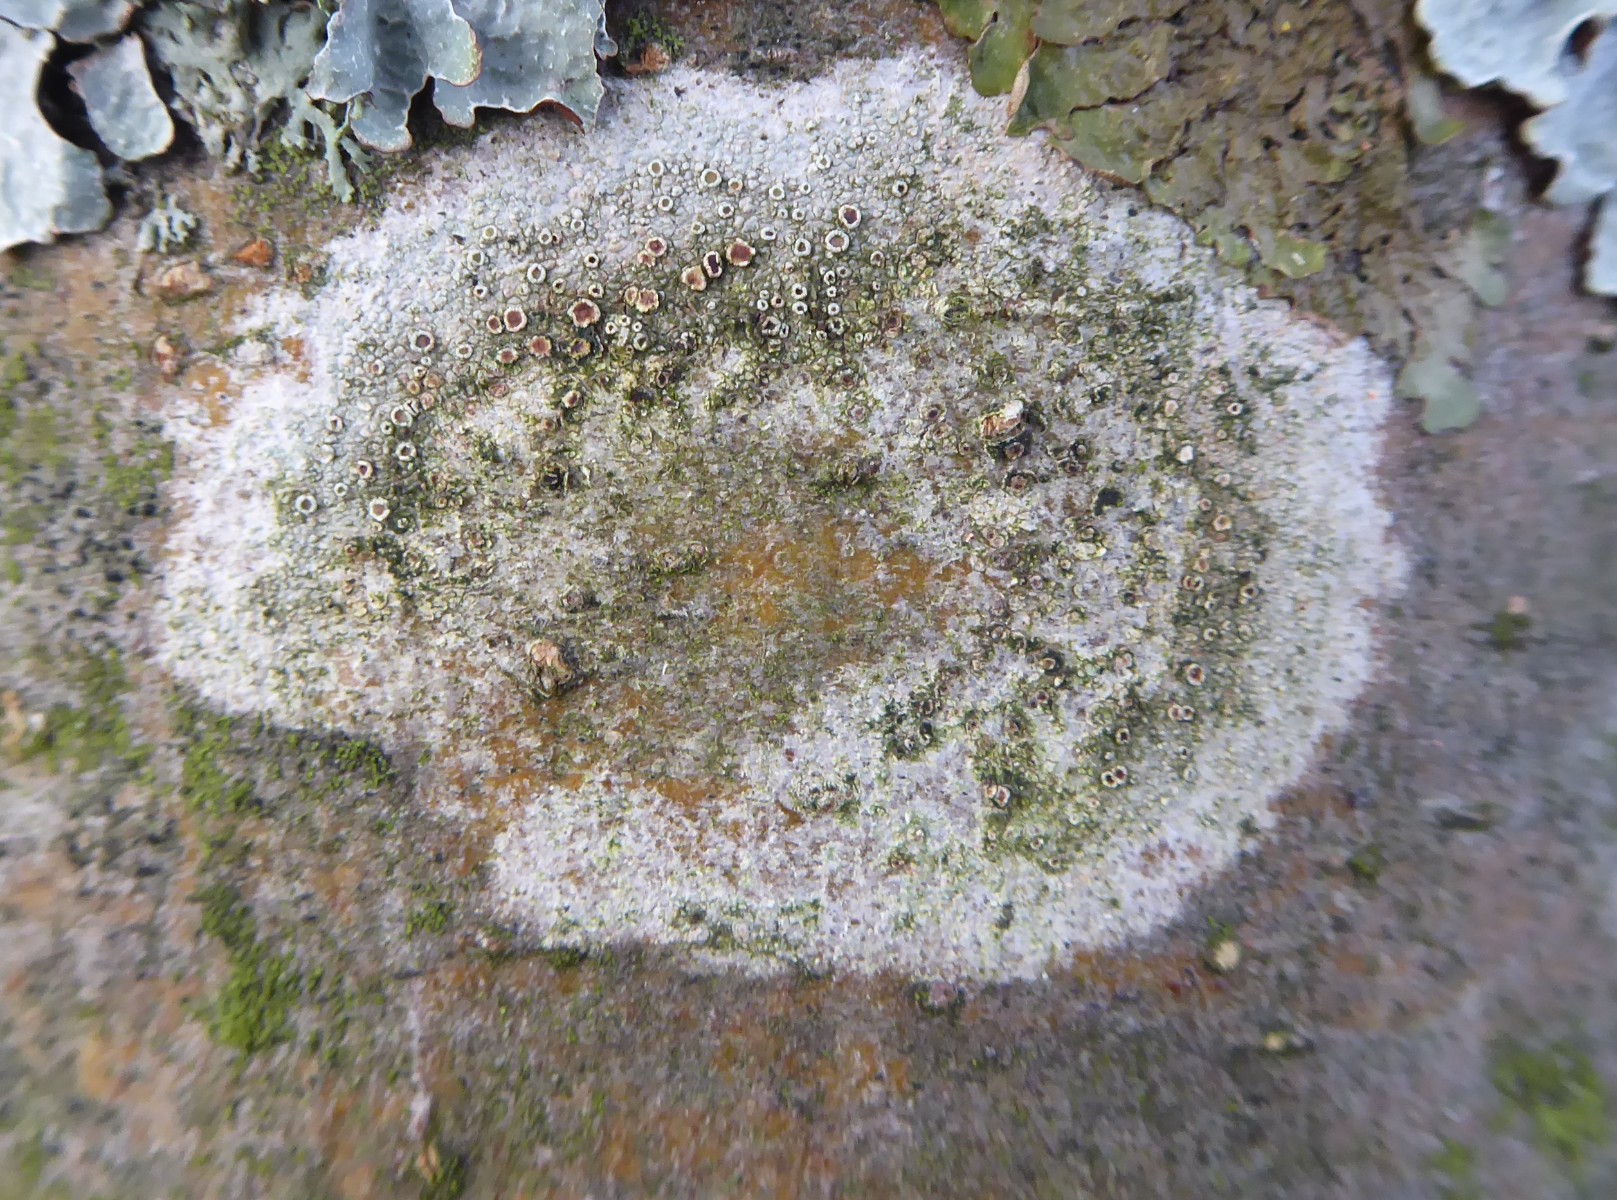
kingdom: Fungi
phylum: Ascomycota
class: Lecanoromycetes
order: Lecanorales
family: Lecanoraceae
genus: Lecanora
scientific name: Lecanora chlarotera
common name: brun kantskivelav
